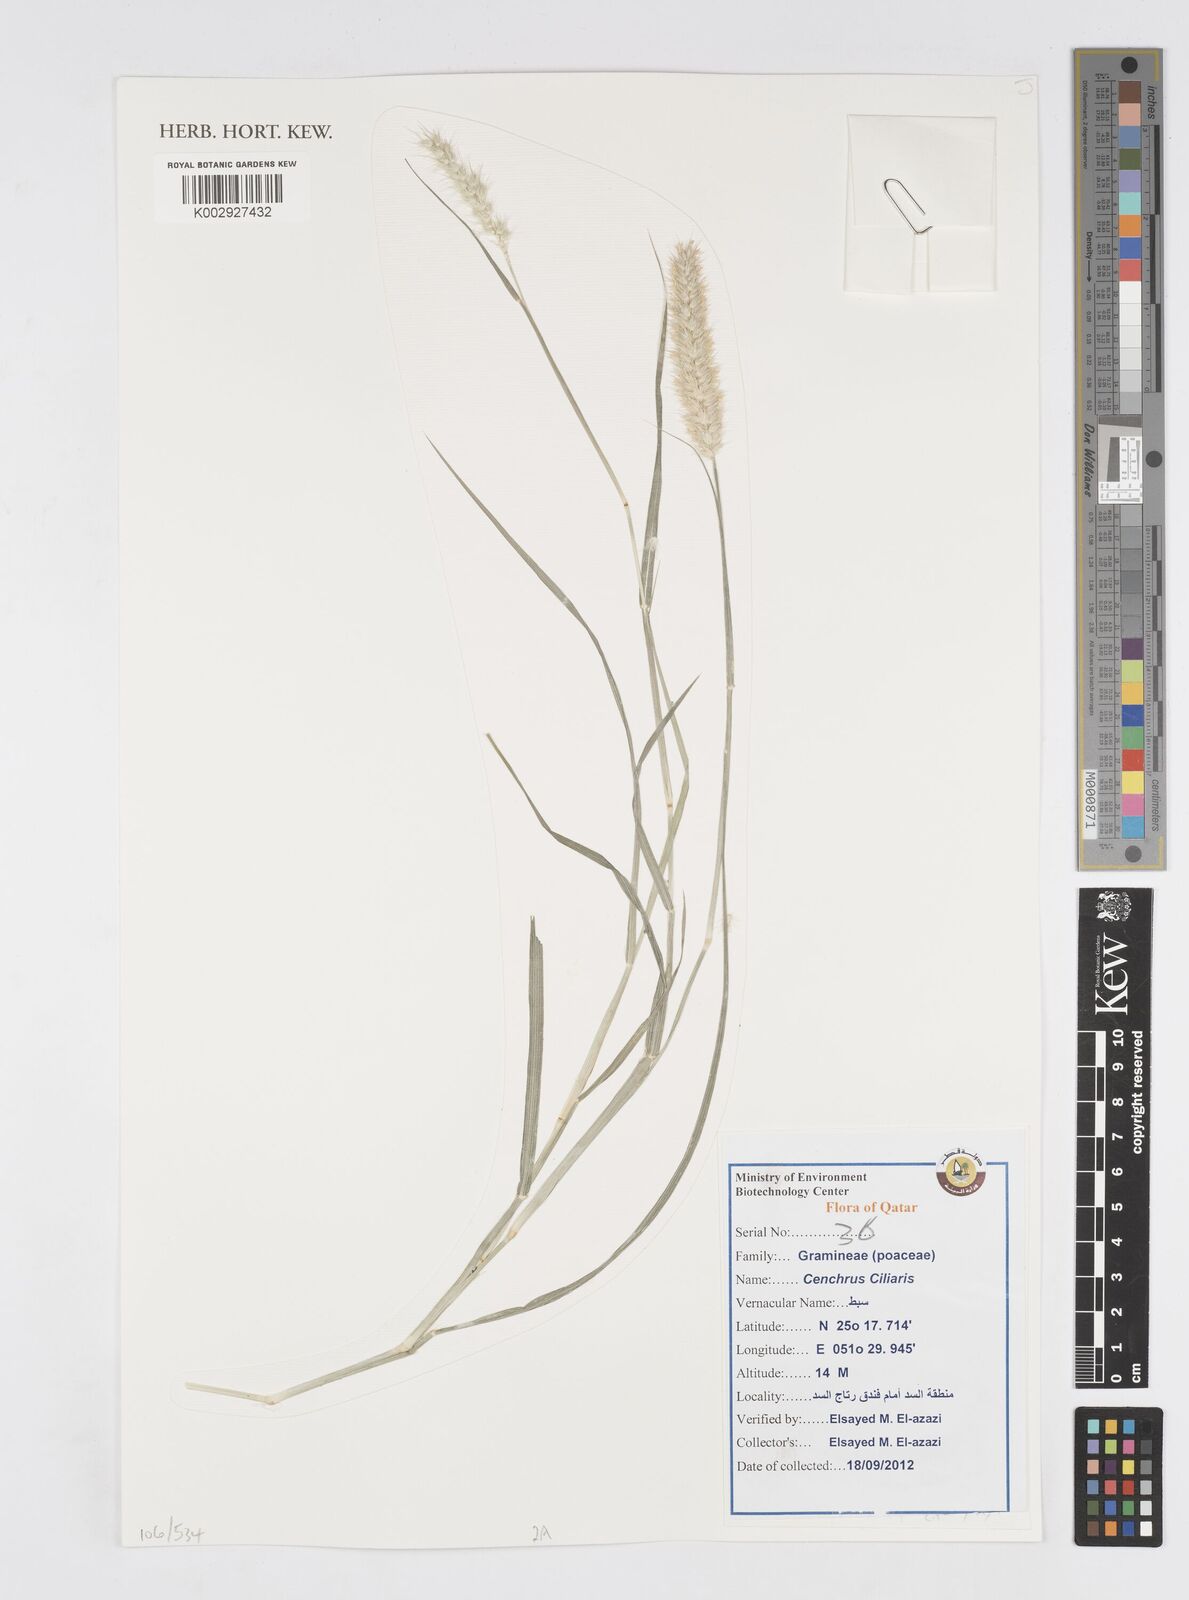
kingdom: Plantae
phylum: Tracheophyta
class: Liliopsida
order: Poales
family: Poaceae
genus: Cenchrus
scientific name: Cenchrus
